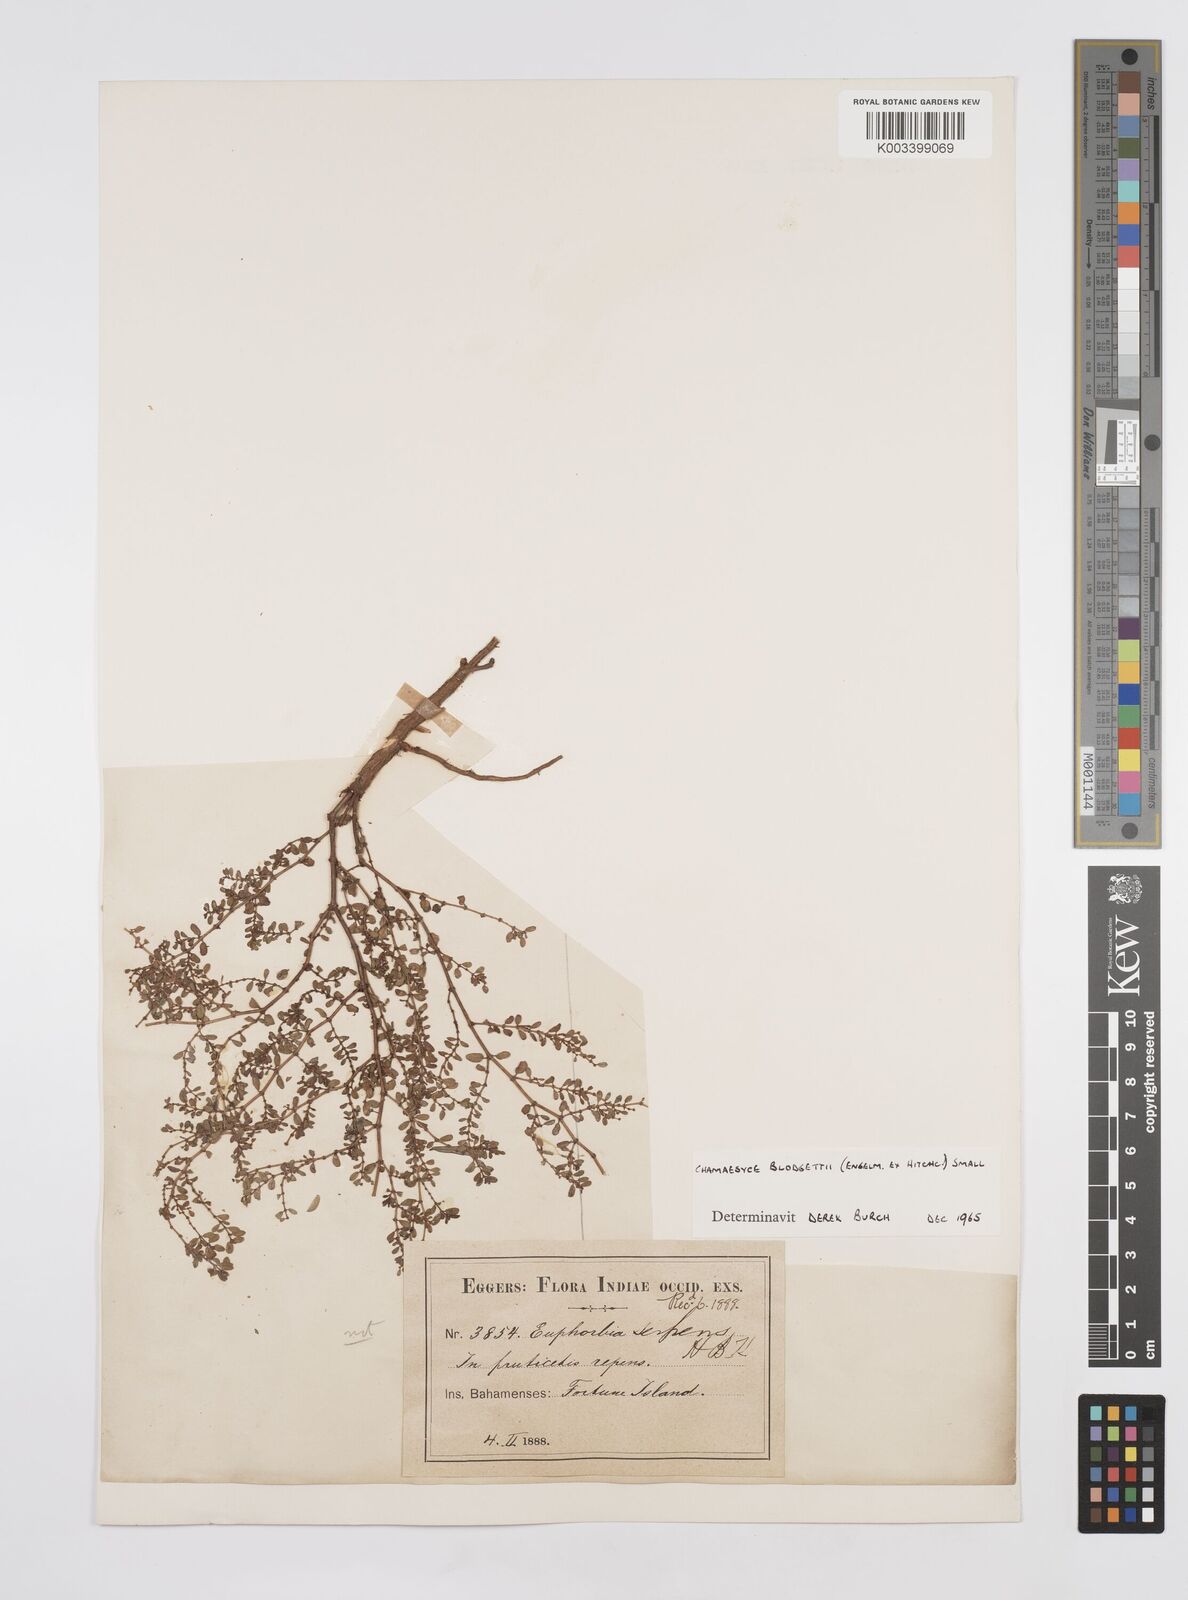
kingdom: Plantae
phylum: Tracheophyta
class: Magnoliopsida
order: Malpighiales
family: Euphorbiaceae
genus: Euphorbia
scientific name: Euphorbia blodgettii
